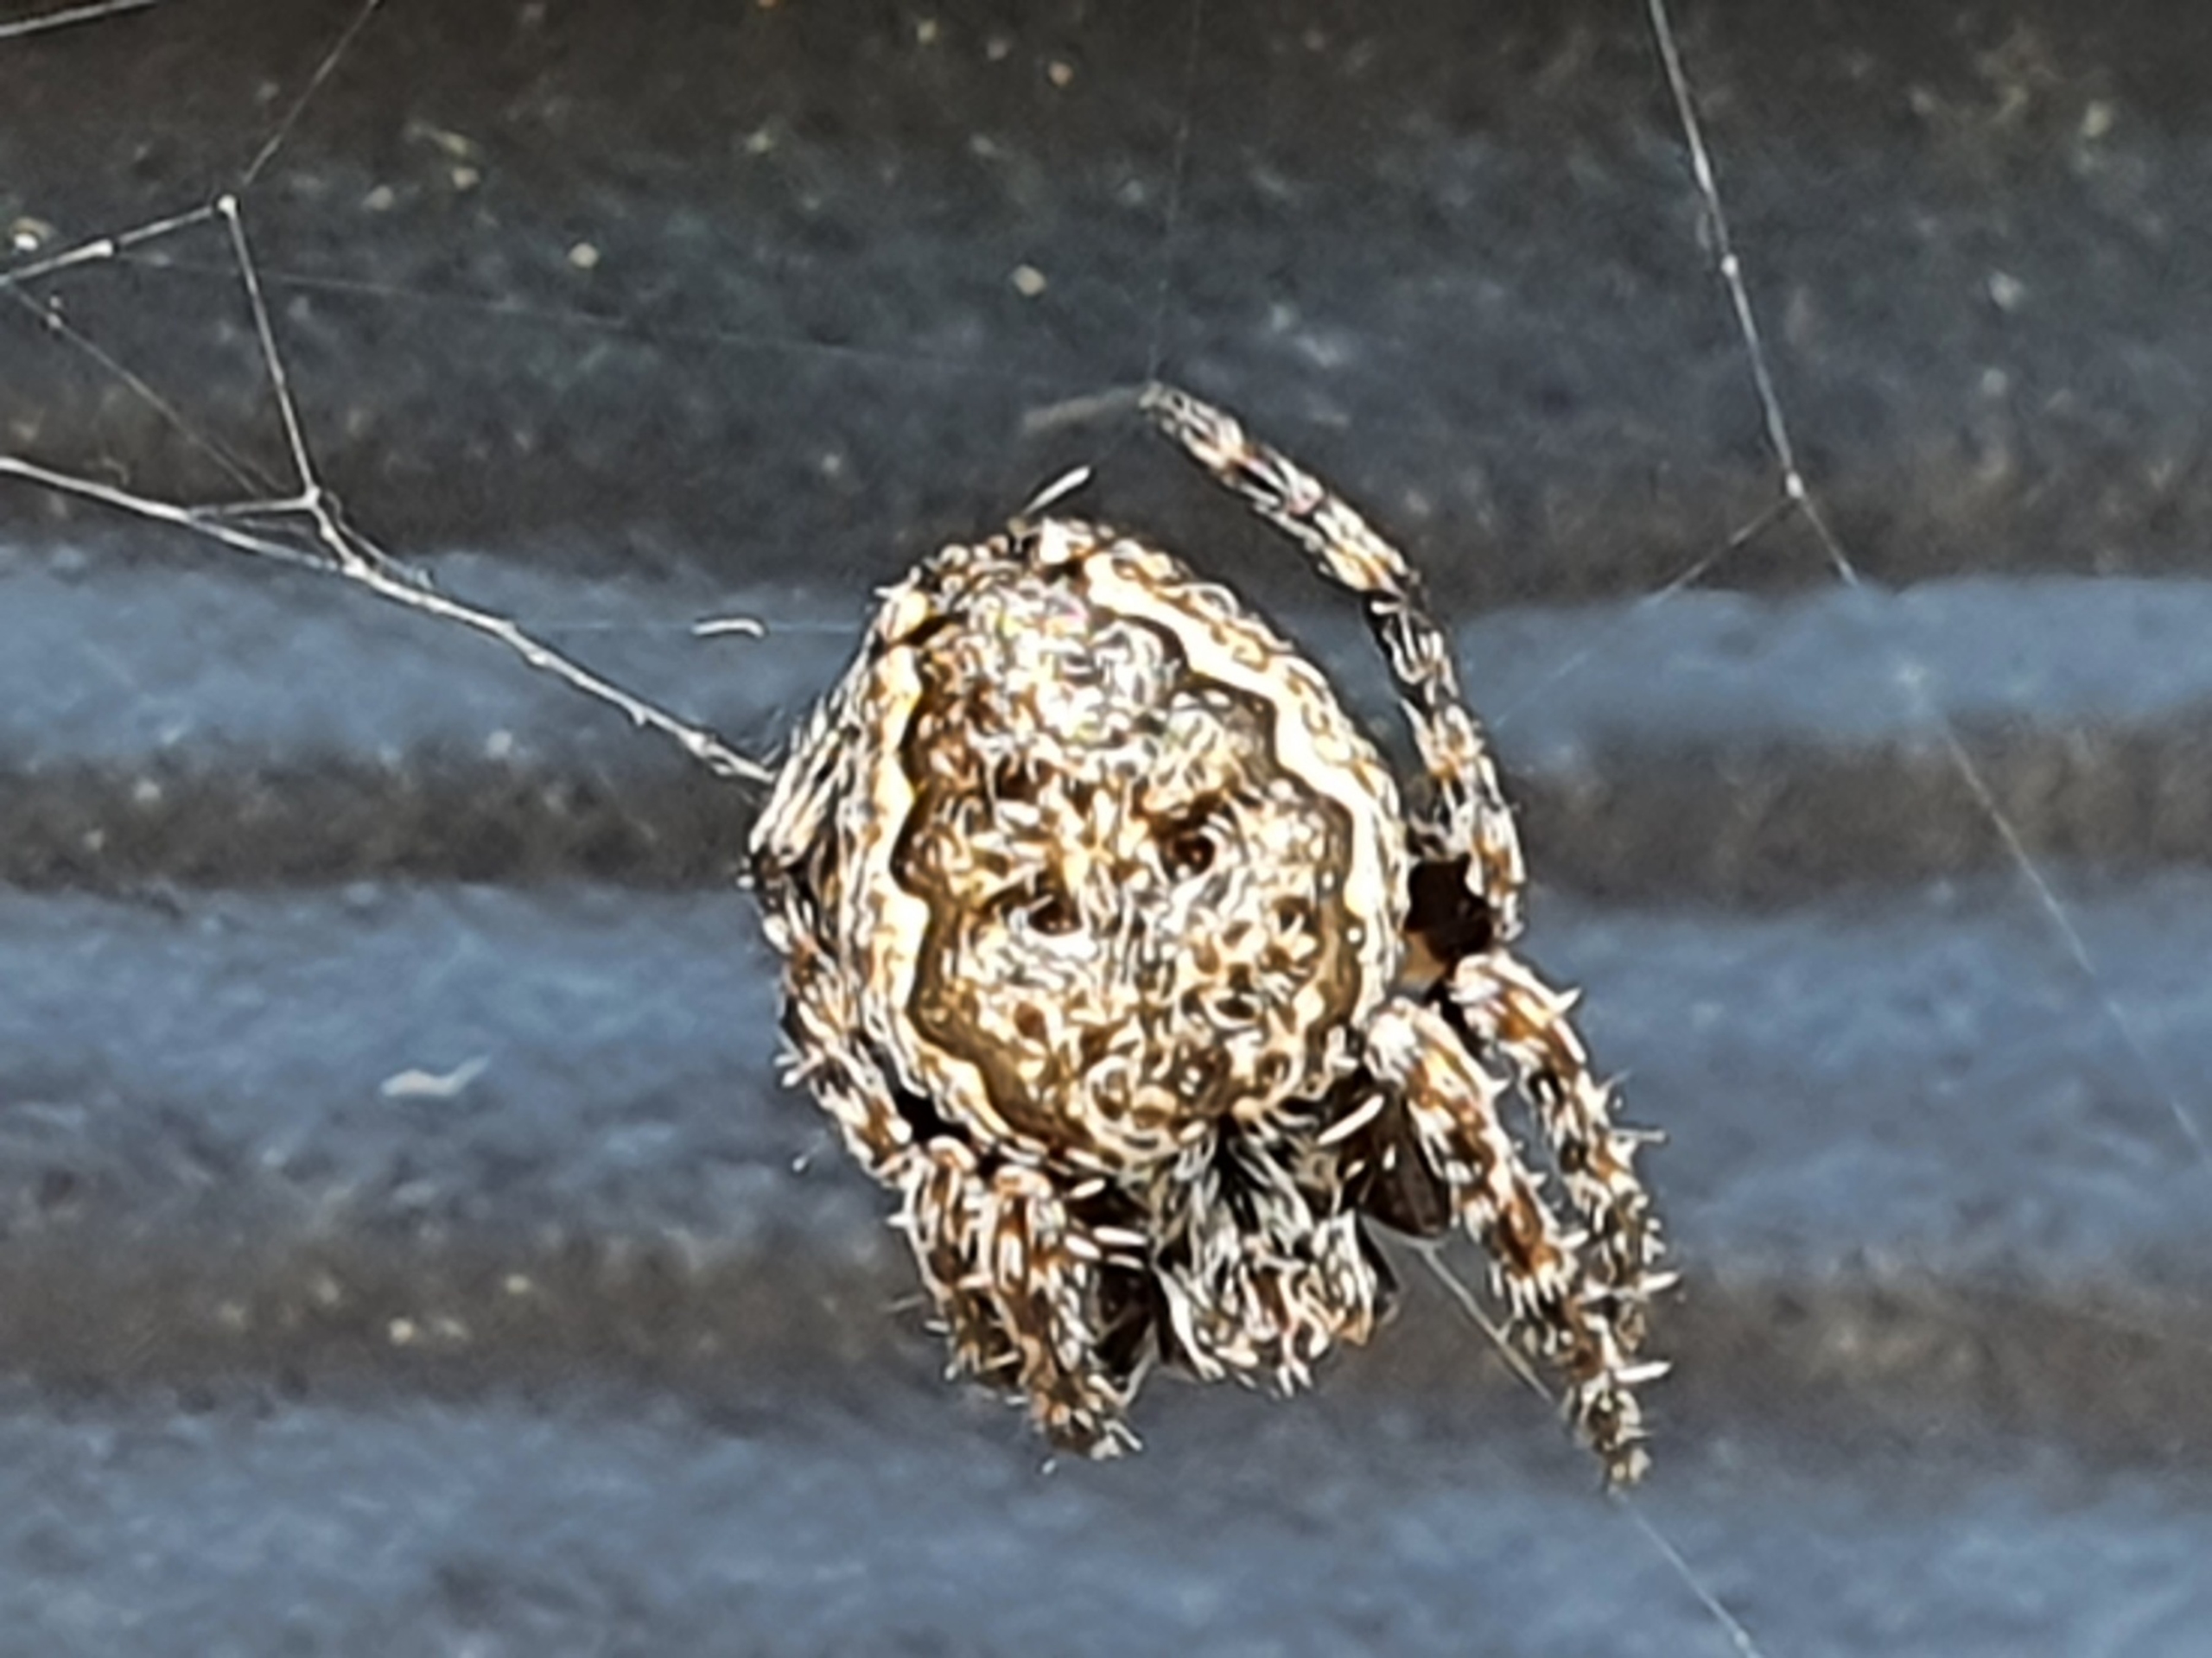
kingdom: Animalia
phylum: Arthropoda
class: Arachnida
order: Araneae
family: Araneidae
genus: Nuctenea
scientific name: Nuctenea umbratica
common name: Flad hjulspinder
